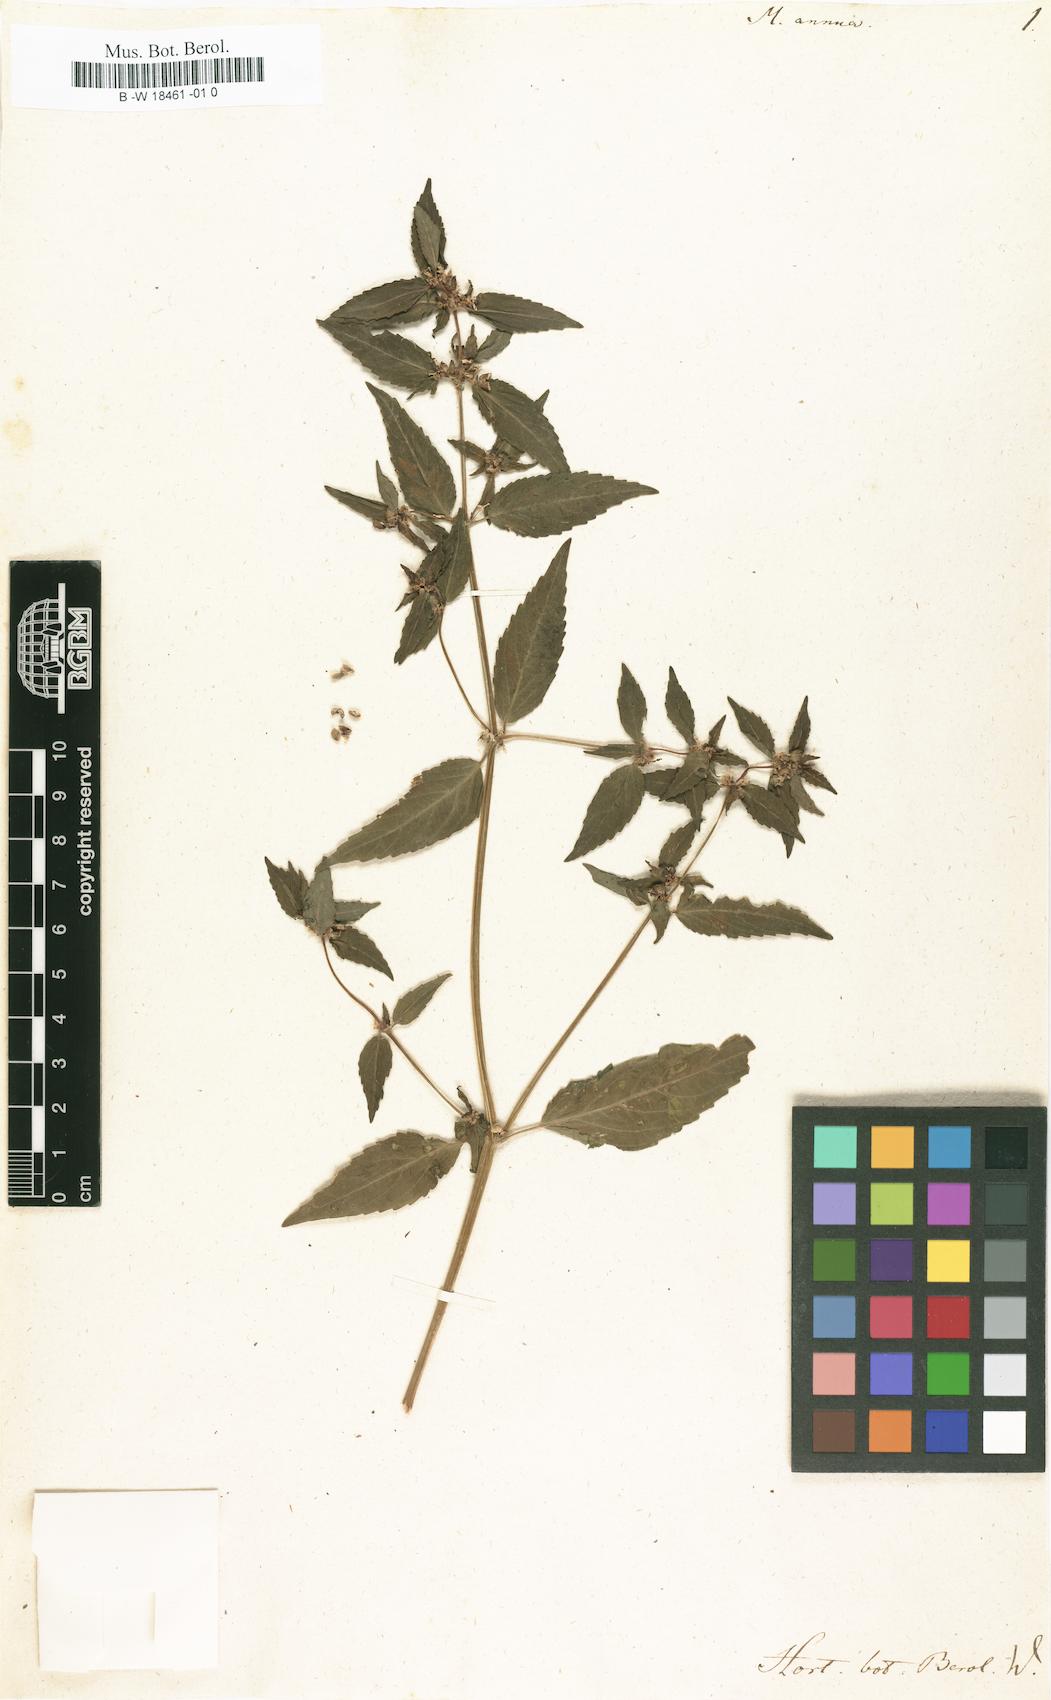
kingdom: Plantae
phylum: Tracheophyta
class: Magnoliopsida
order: Malpighiales
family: Euphorbiaceae
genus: Mercurialis
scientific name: Mercurialis annua
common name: Annual mercury
